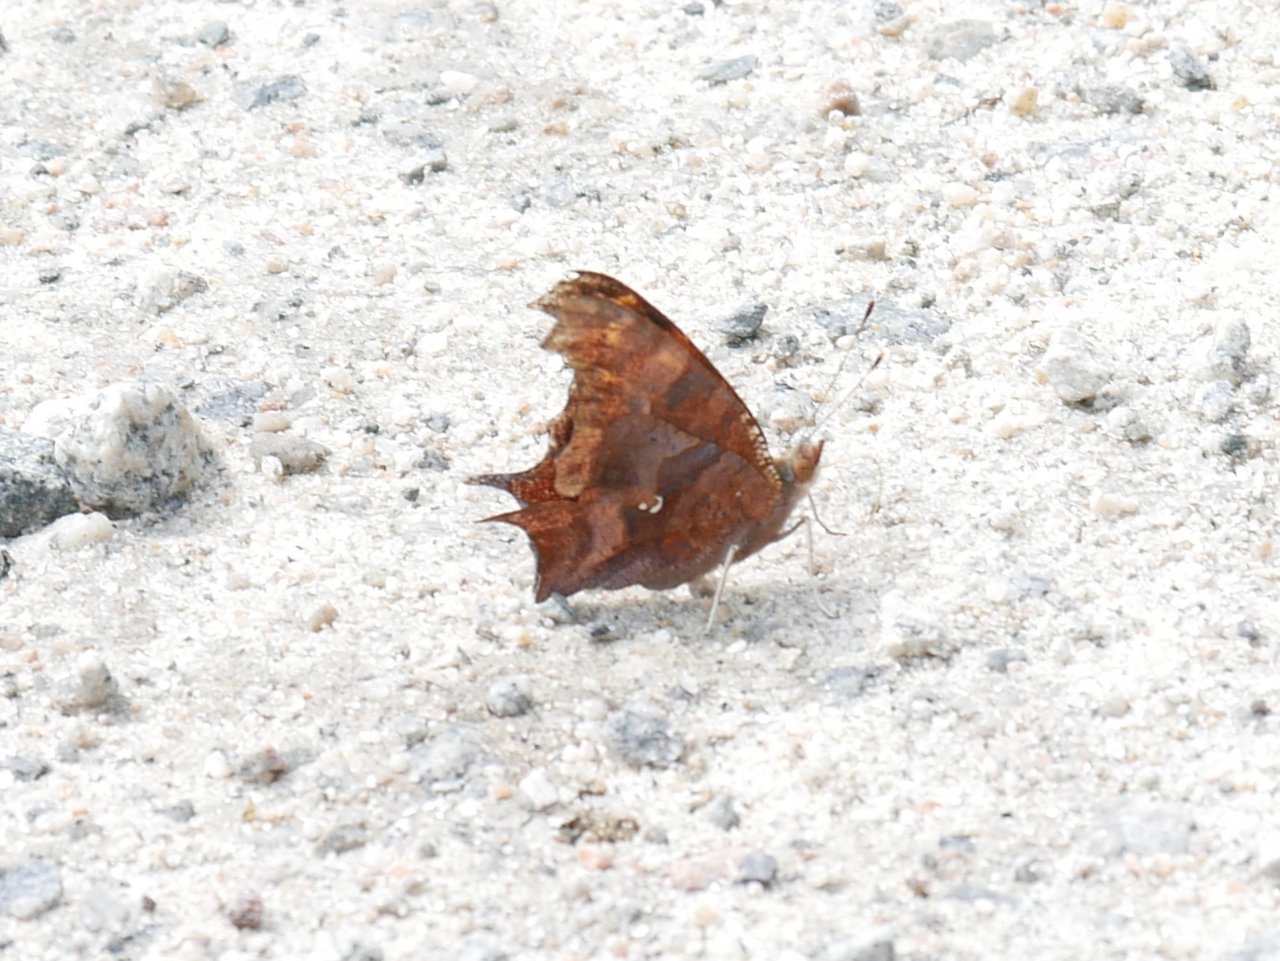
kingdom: Animalia
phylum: Arthropoda
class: Insecta
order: Lepidoptera
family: Nymphalidae
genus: Polygonia
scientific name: Polygonia interrogationis
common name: Question Mark
